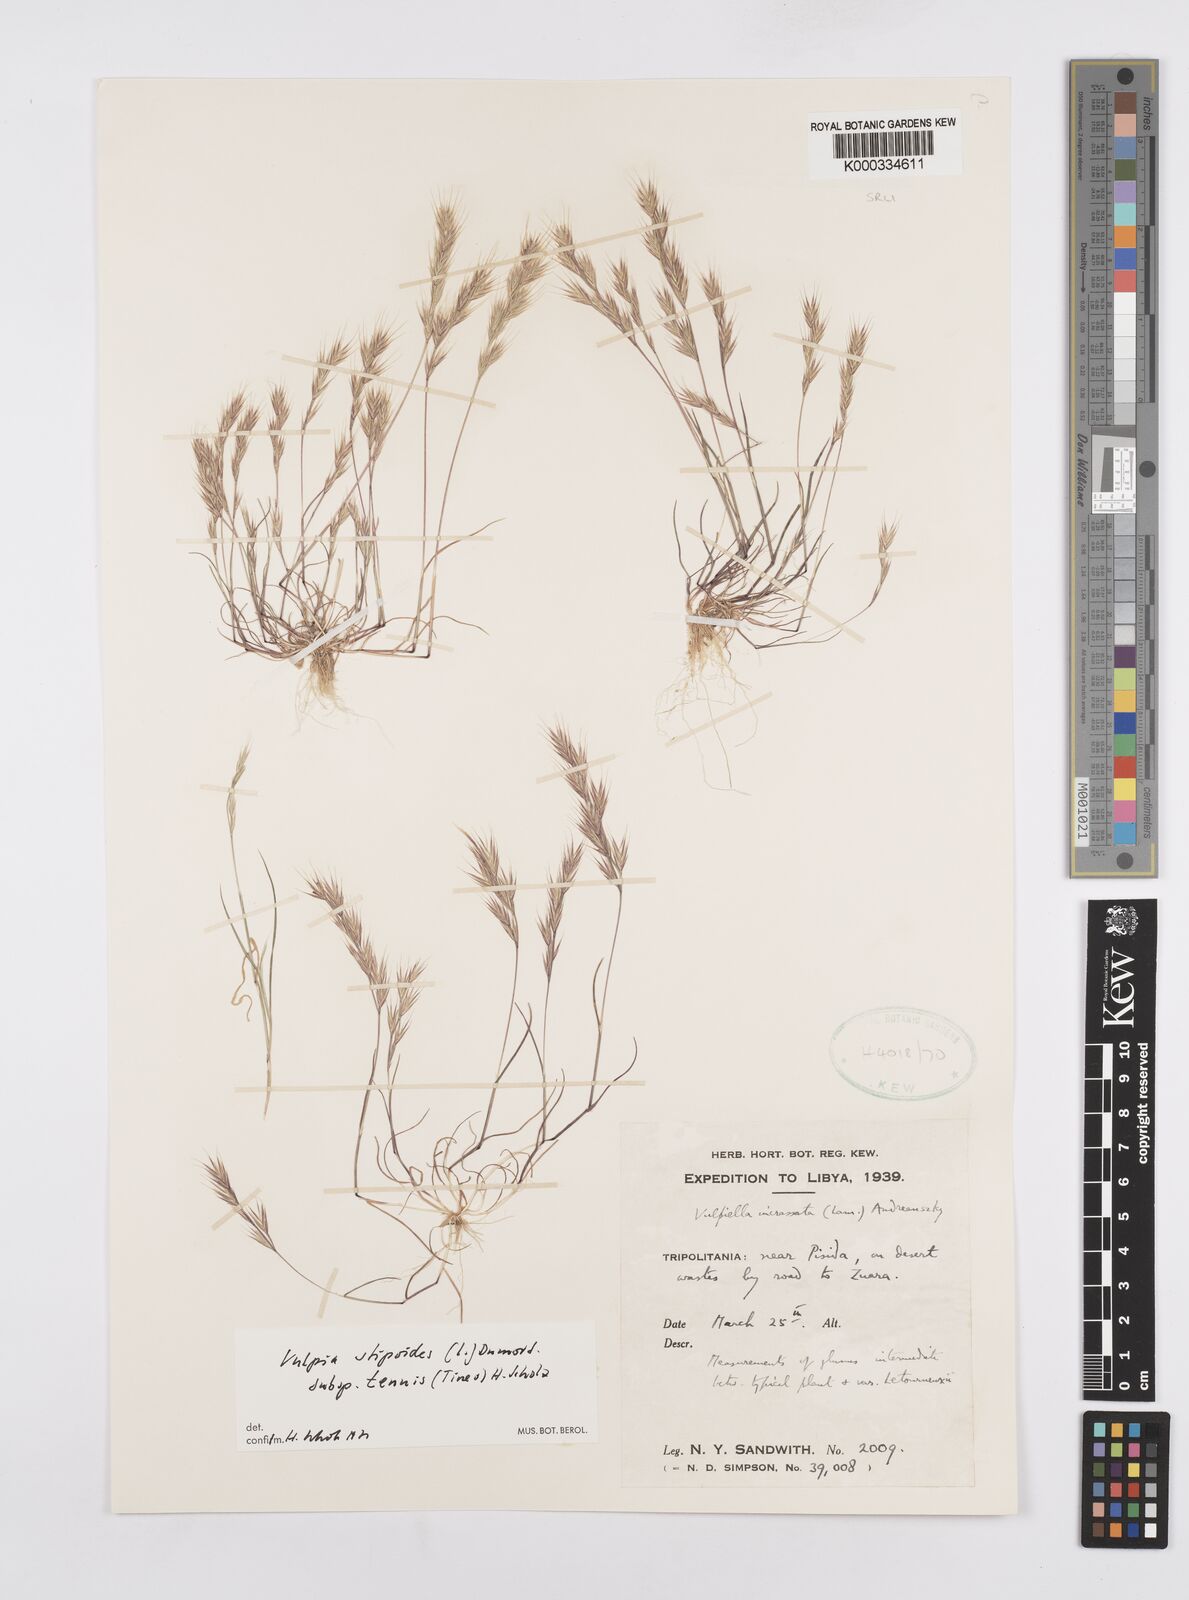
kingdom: Plantae
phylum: Tracheophyta
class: Liliopsida
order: Poales
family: Poaceae
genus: Vulpiella
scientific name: Vulpiella stipoides
